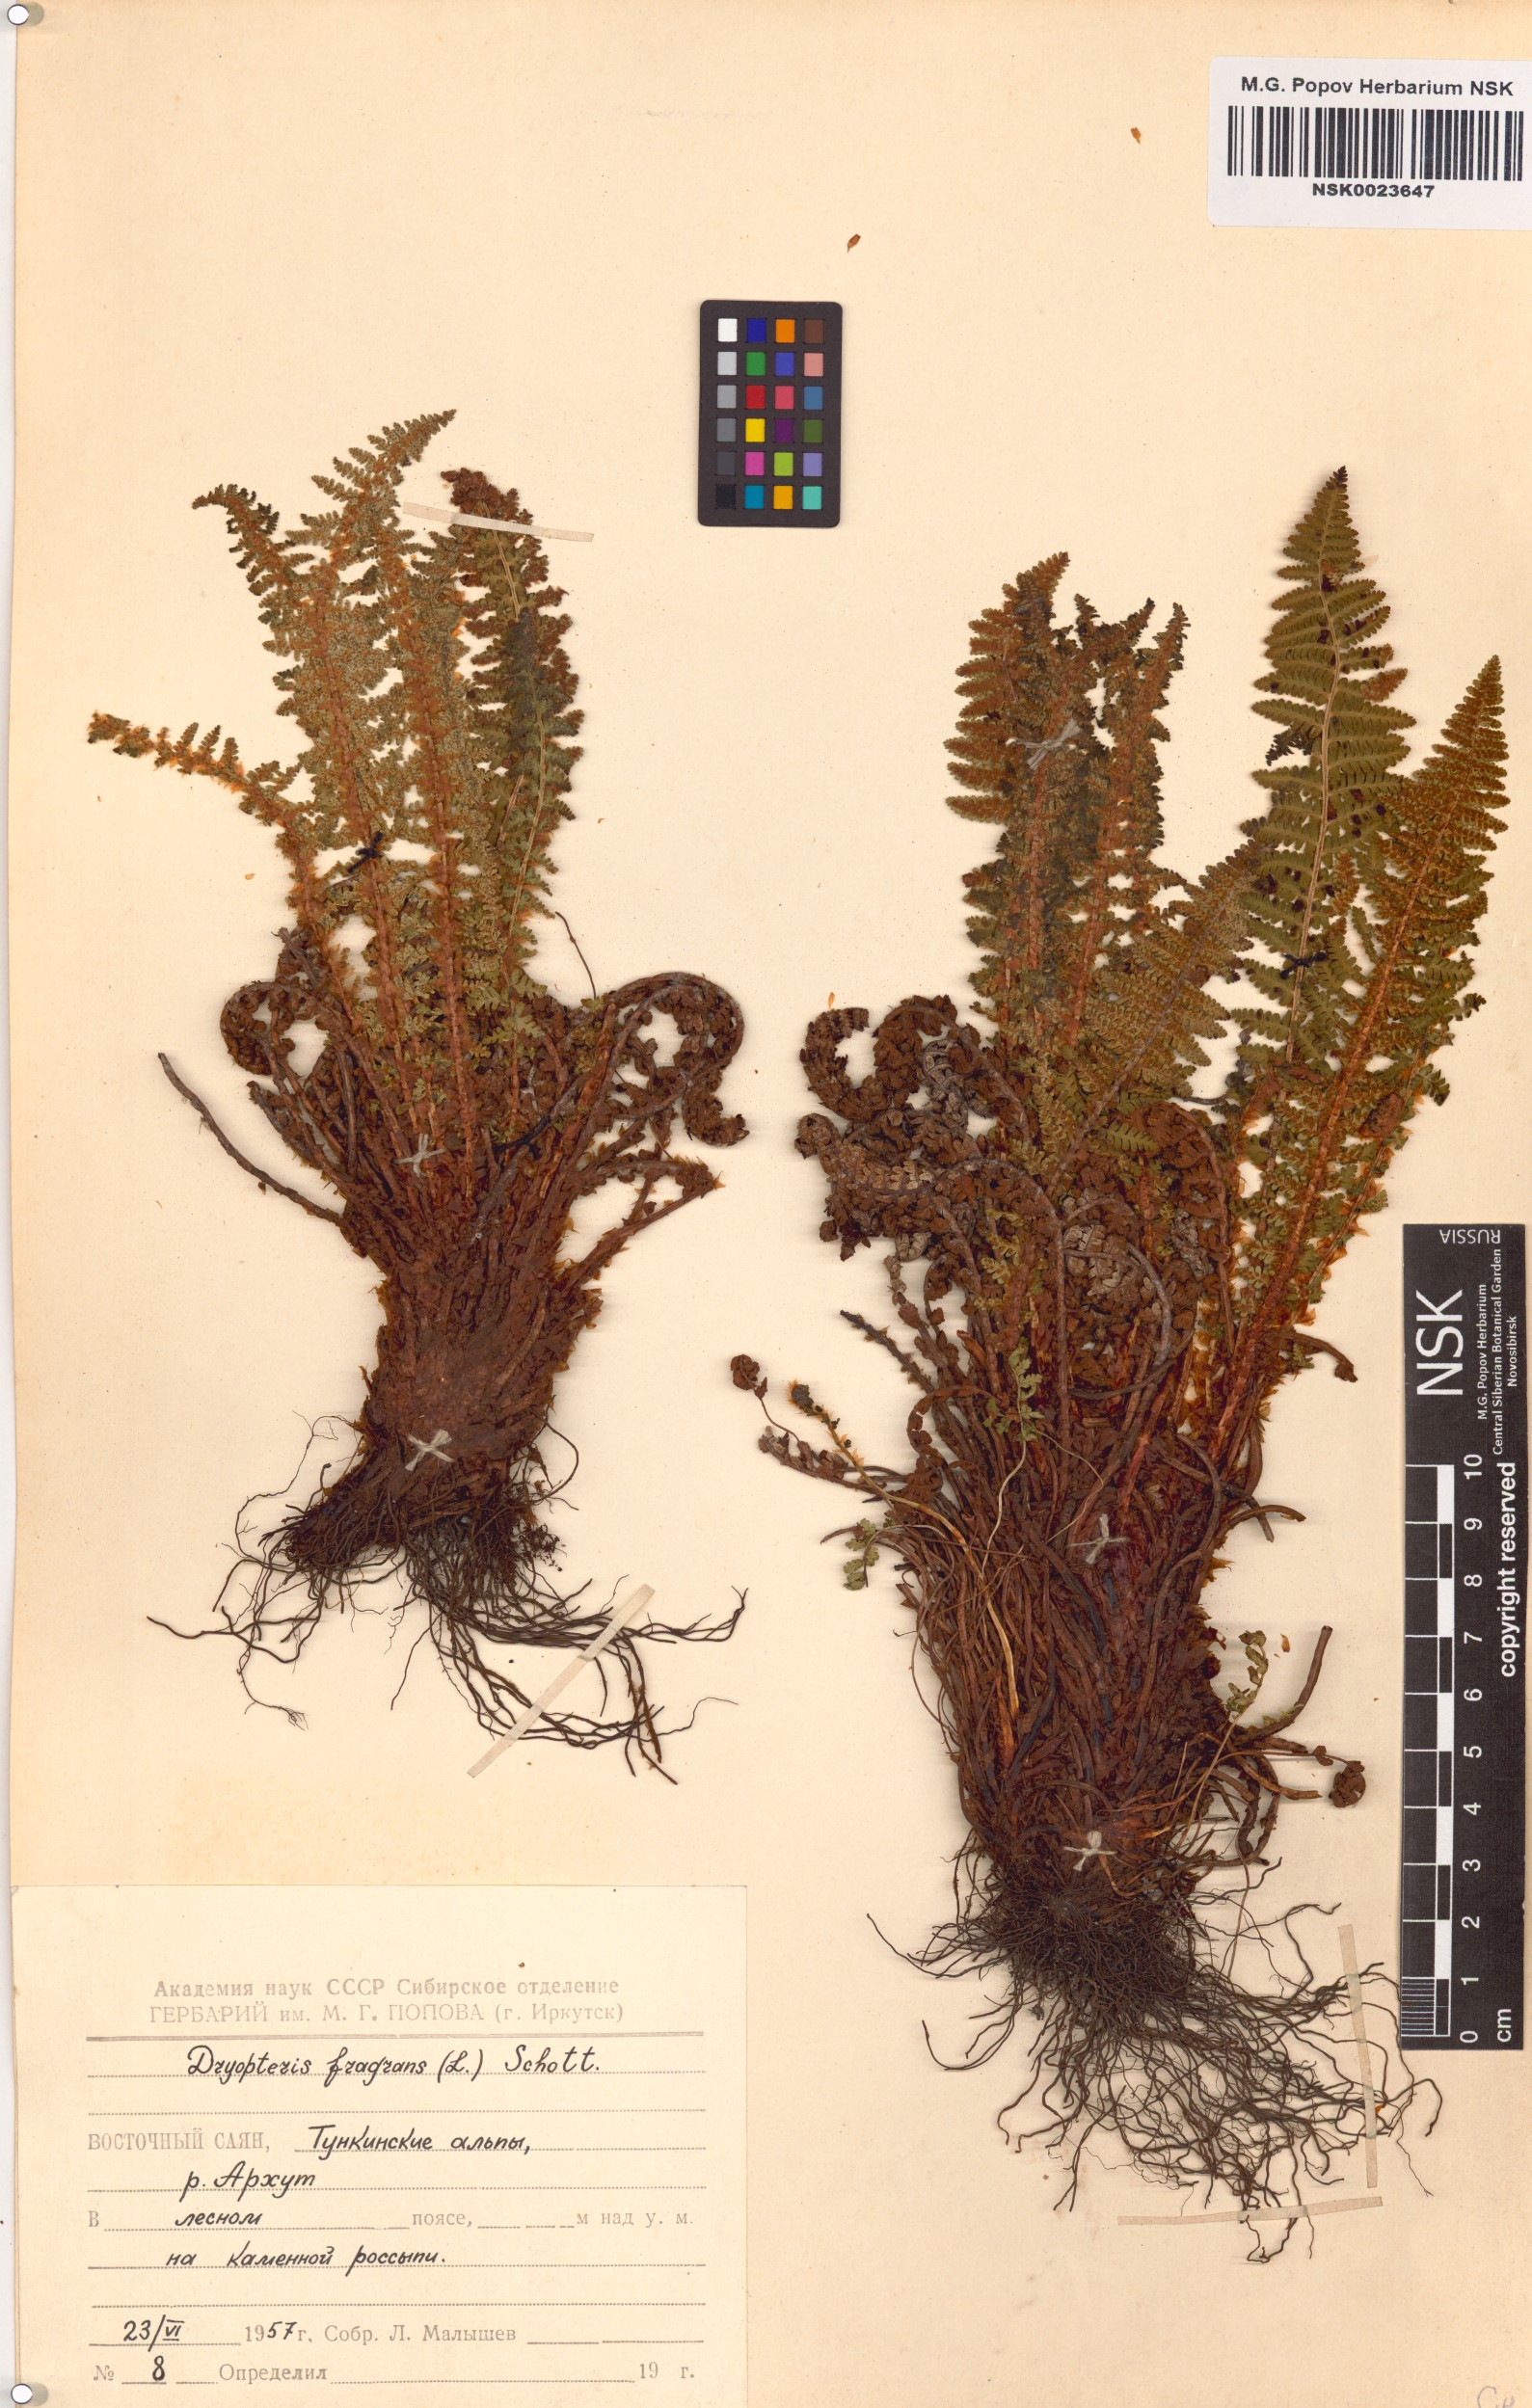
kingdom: Plantae
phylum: Tracheophyta
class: Polypodiopsida
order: Polypodiales
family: Dryopteridaceae
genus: Dryopteris
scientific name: Dryopteris fragrans
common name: Fragrant wood fern
